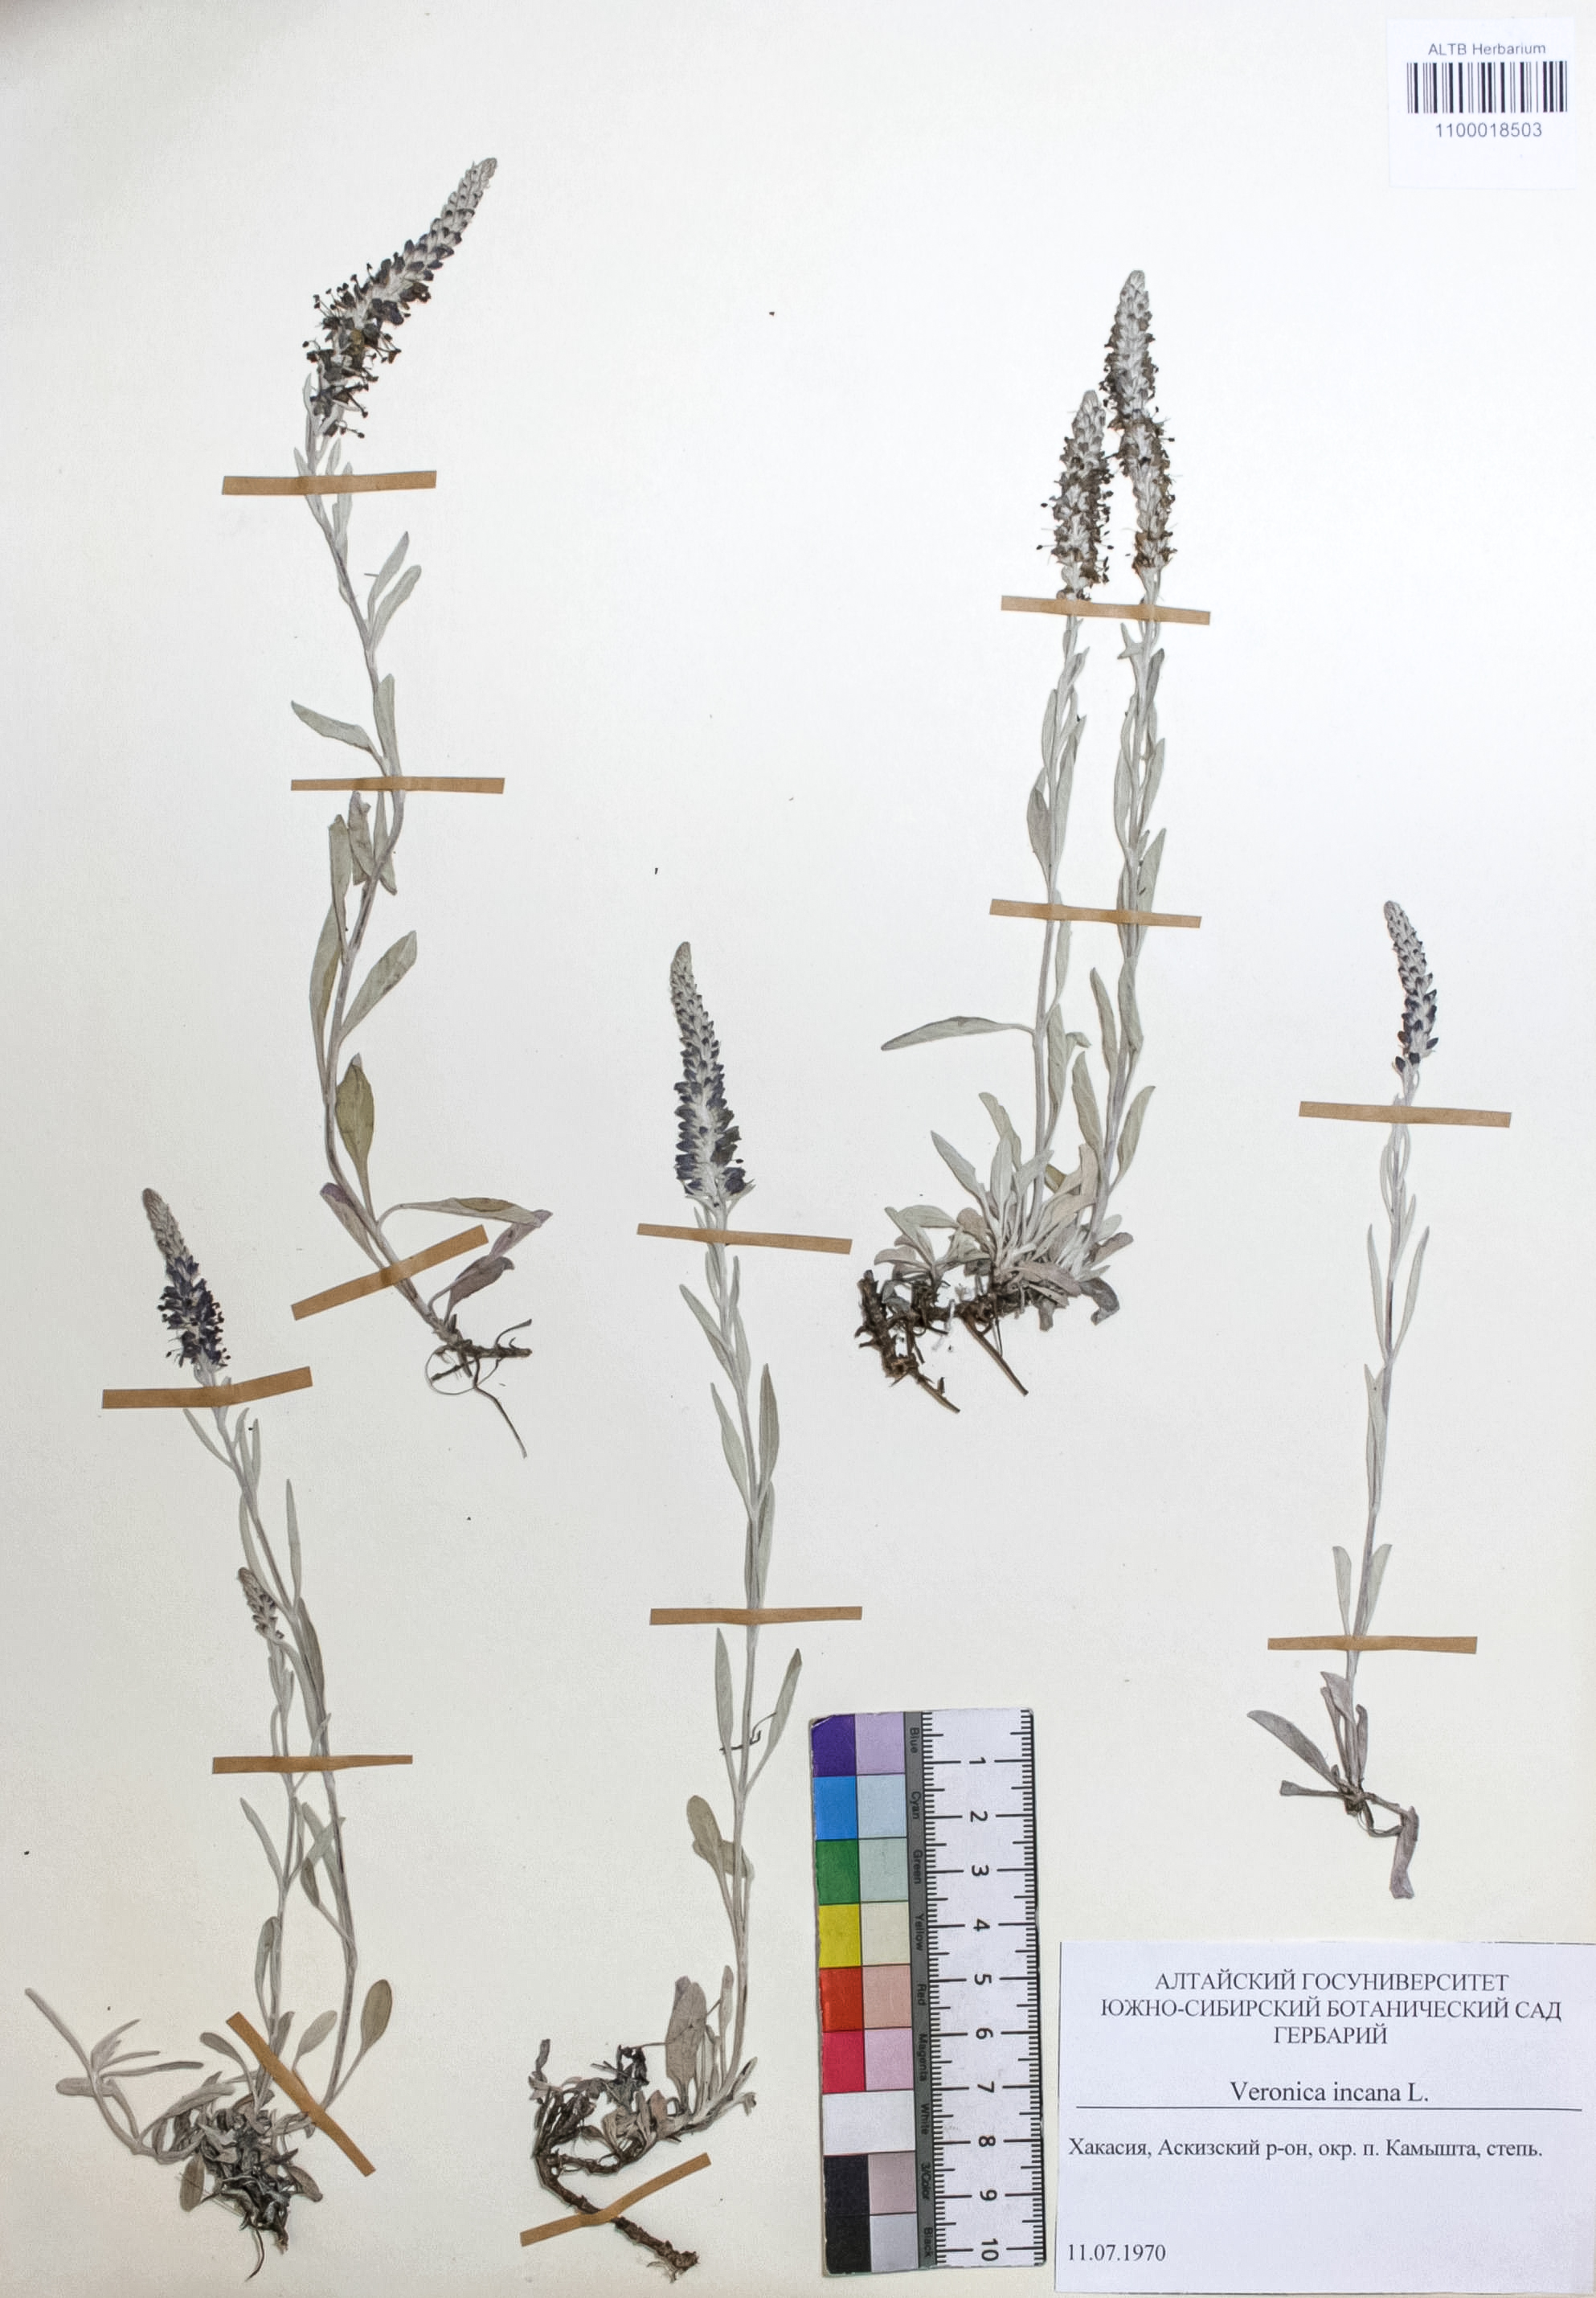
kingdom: Plantae
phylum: Tracheophyta
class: Magnoliopsida
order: Lamiales
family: Plantaginaceae
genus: Veronica
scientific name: Veronica incana
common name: Silver speedwell
